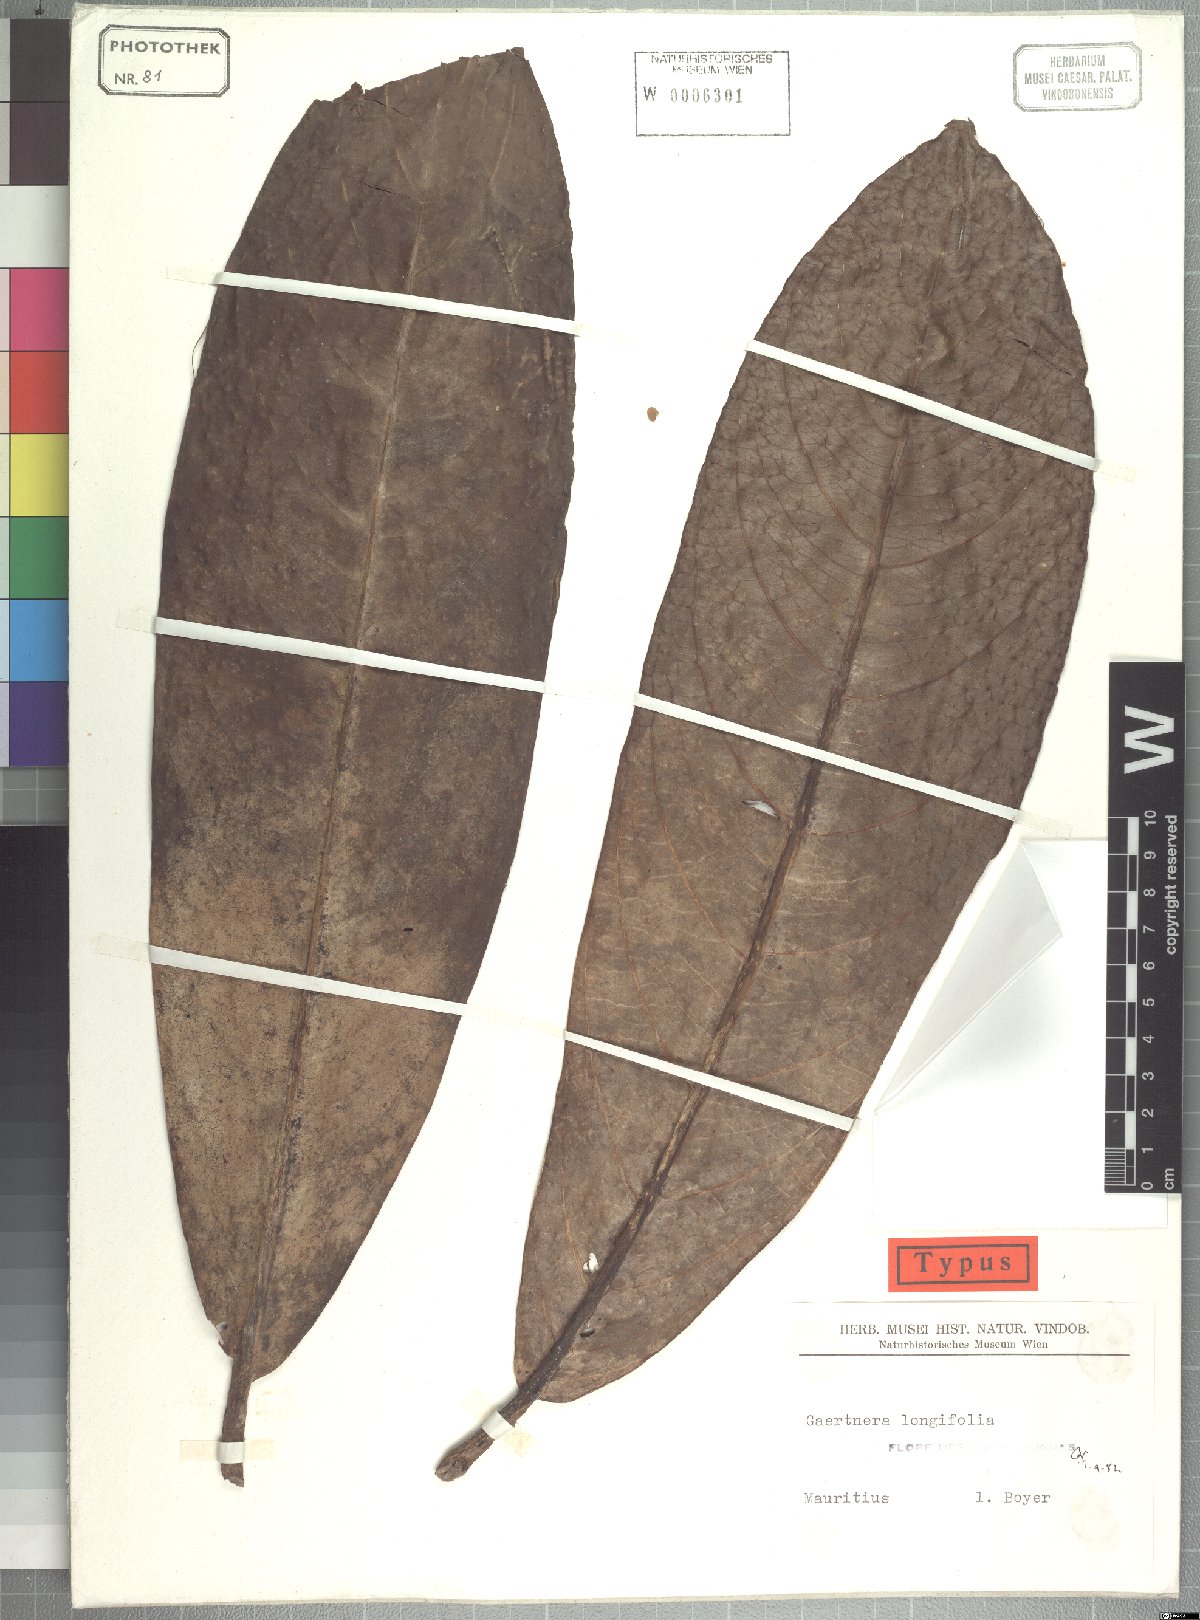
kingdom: Plantae
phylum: Tracheophyta
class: Magnoliopsida
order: Gentianales
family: Rubiaceae
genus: Gaertnera
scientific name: Gaertnera longifolia
